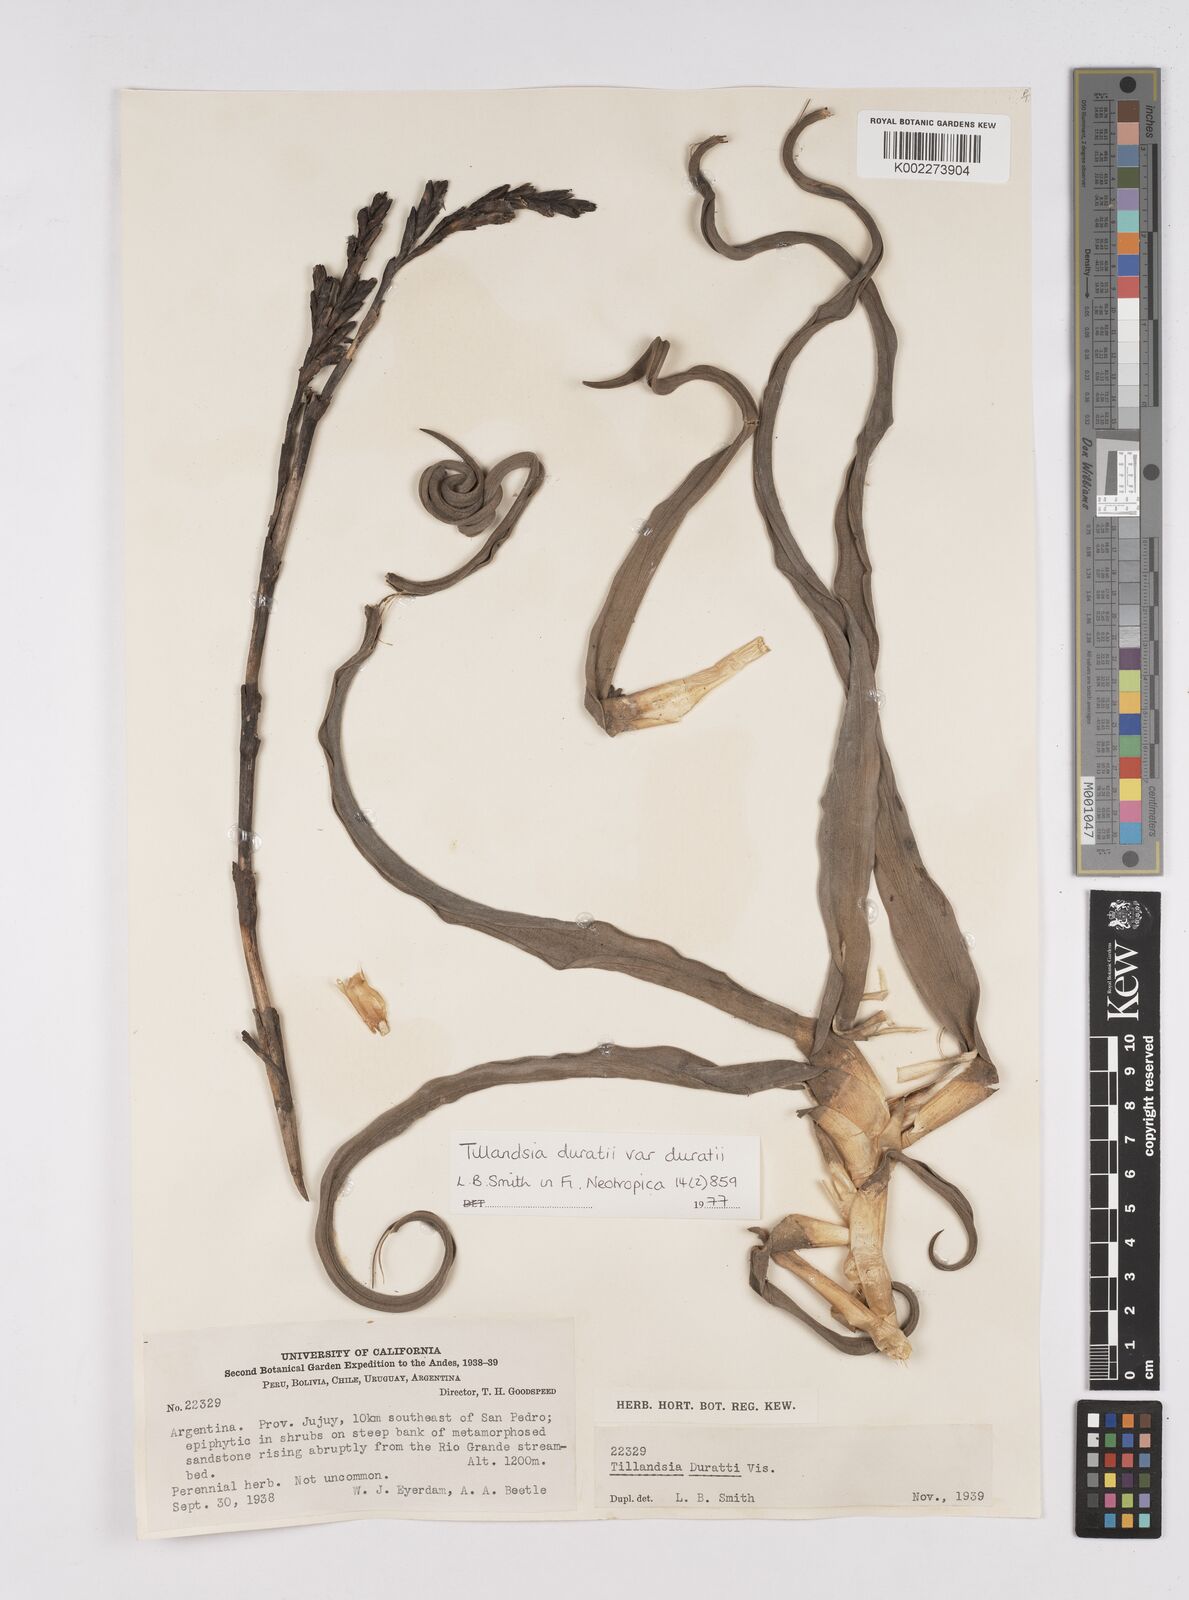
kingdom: Plantae
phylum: Tracheophyta
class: Liliopsida
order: Poales
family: Bromeliaceae
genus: Tillandsia
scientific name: Tillandsia duratii
